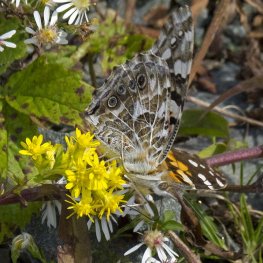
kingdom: Animalia
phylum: Arthropoda
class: Insecta
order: Lepidoptera
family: Nymphalidae
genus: Vanessa
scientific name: Vanessa cardui
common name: Painted Lady
